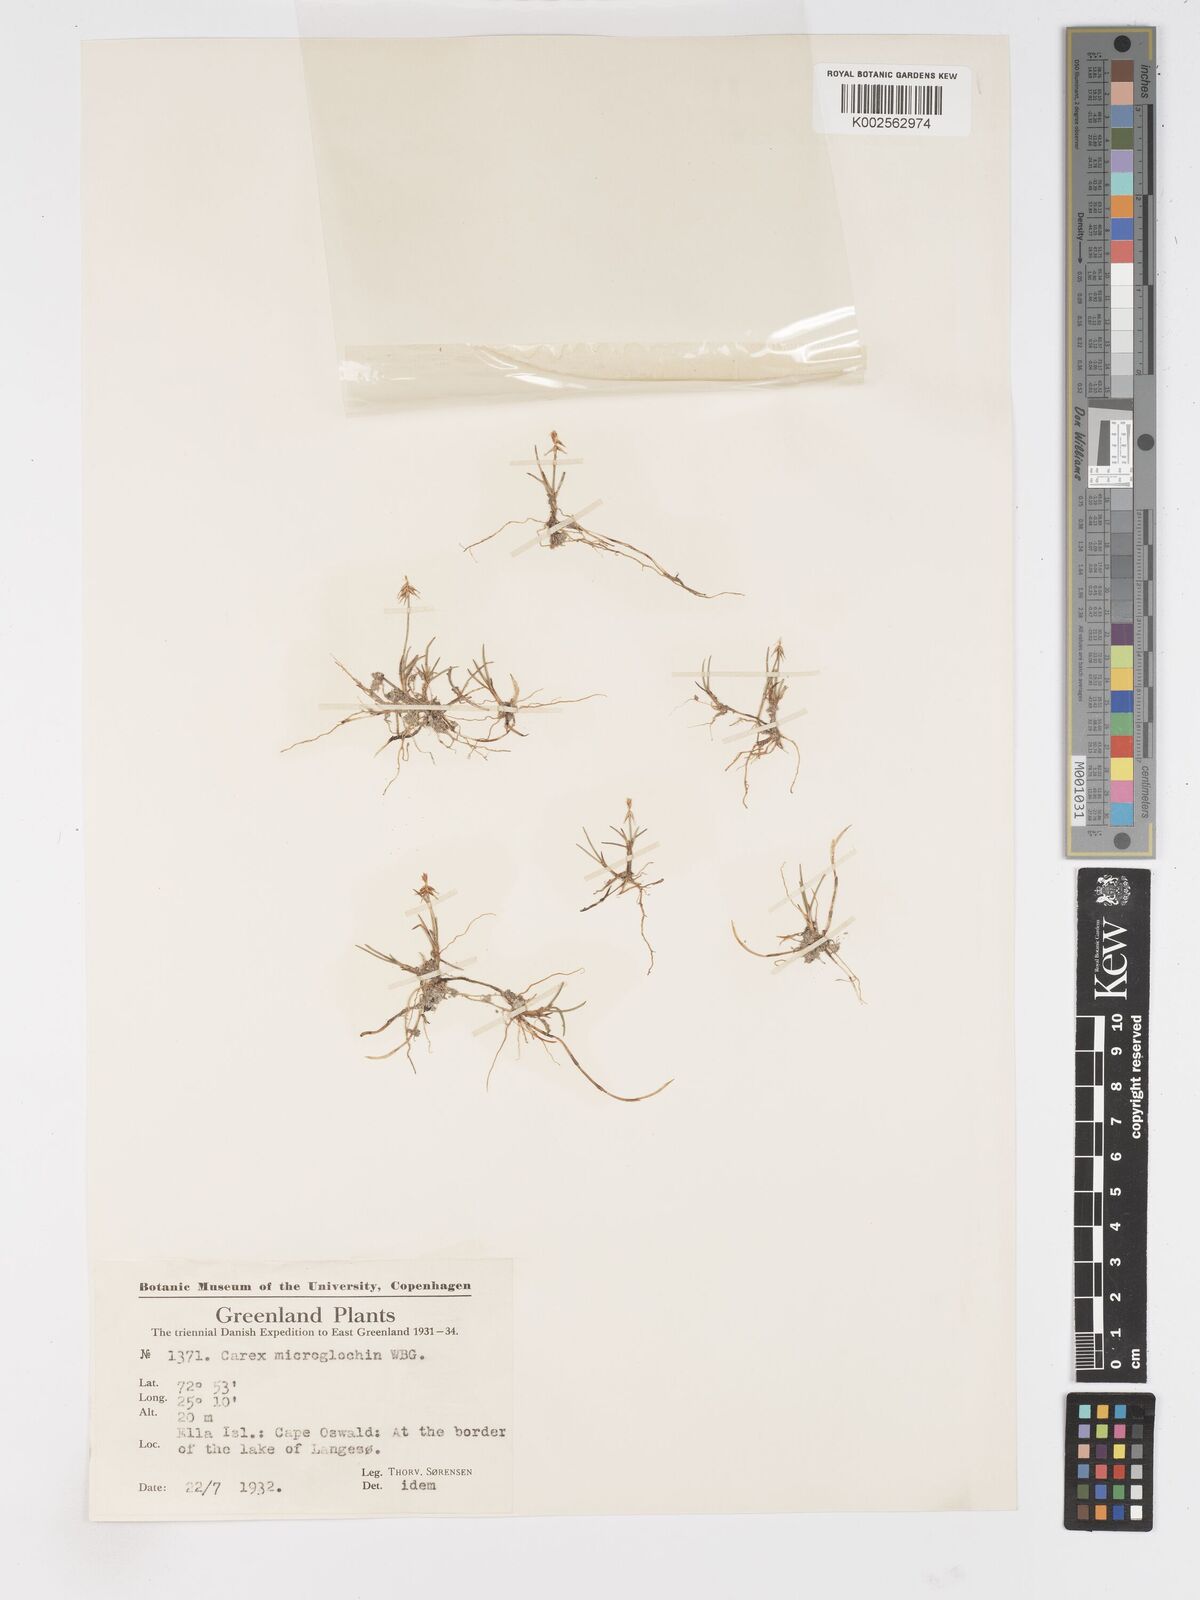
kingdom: Plantae
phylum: Tracheophyta
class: Liliopsida
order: Poales
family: Cyperaceae
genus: Carex
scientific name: Carex microglochin
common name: Bristle sedge
